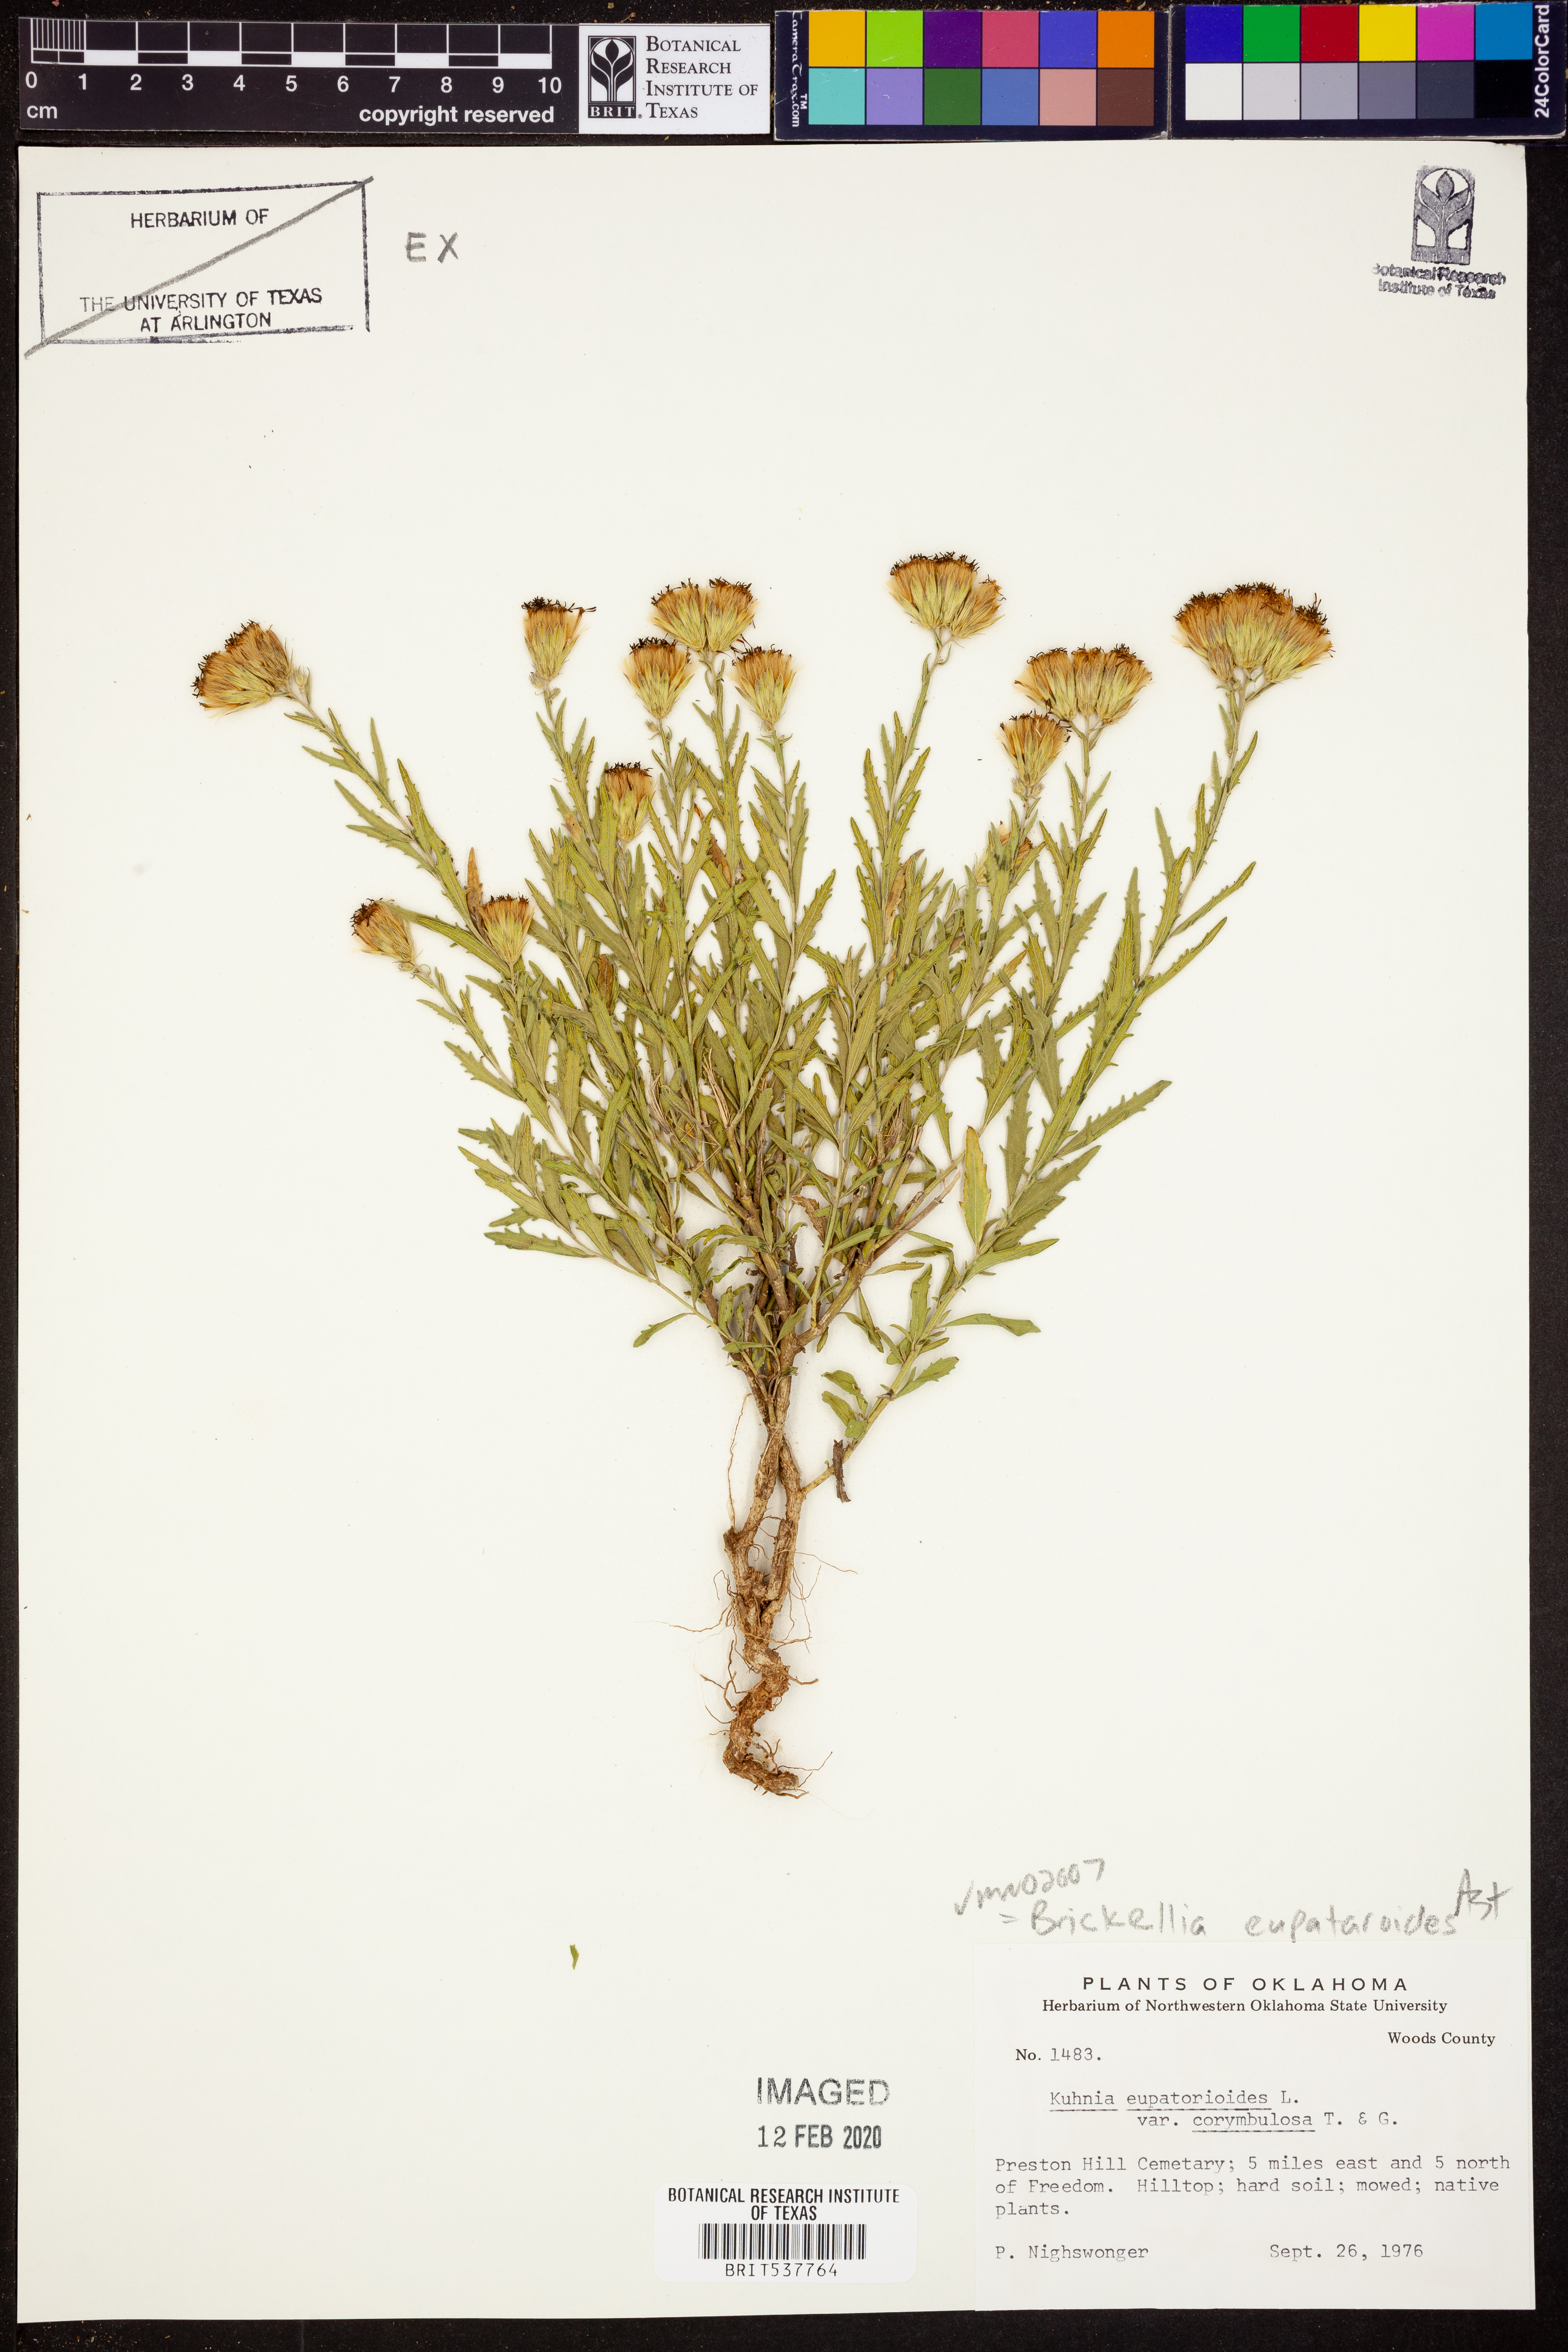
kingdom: Plantae
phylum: Tracheophyta
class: Magnoliopsida
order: Asterales
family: Asteraceae
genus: Brickellia
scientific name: Brickellia eupatorioides
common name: False boneset
